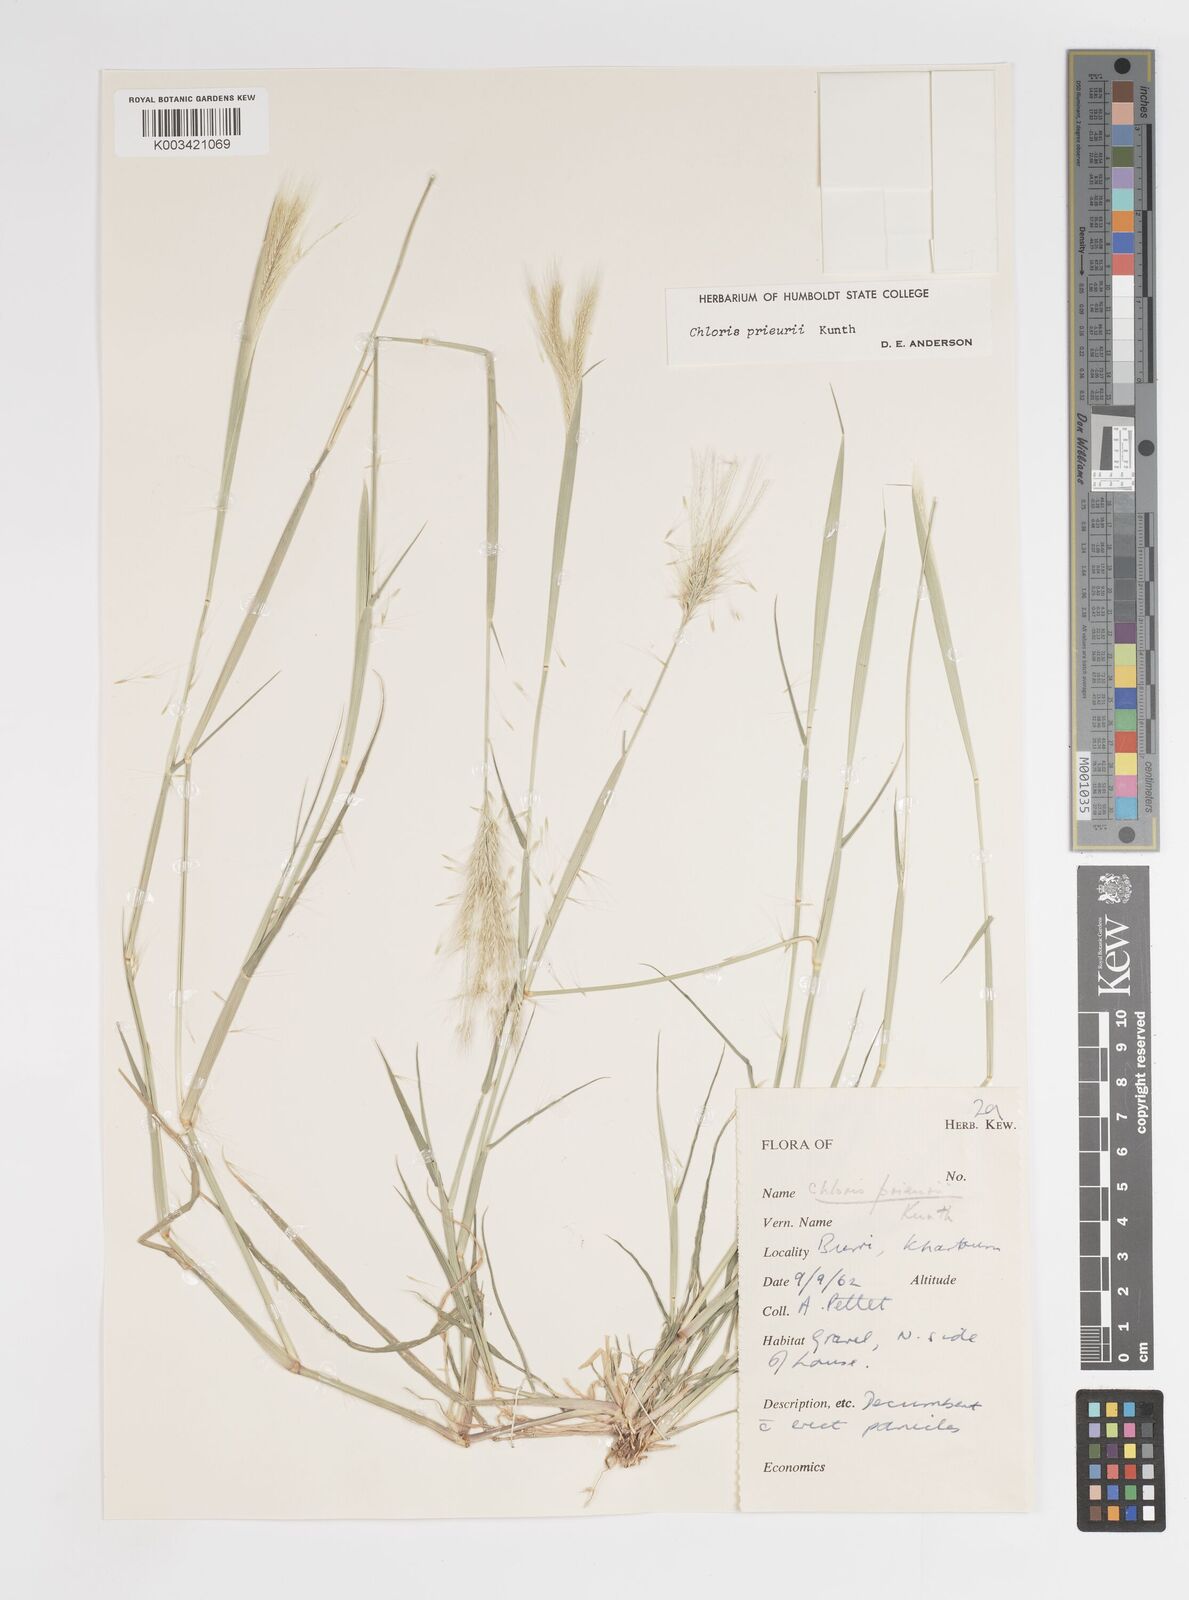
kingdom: Plantae
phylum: Tracheophyta
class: Liliopsida
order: Poales
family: Poaceae
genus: Enteropogon
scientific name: Enteropogon prieurii
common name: Prieur's umbrellagrass
